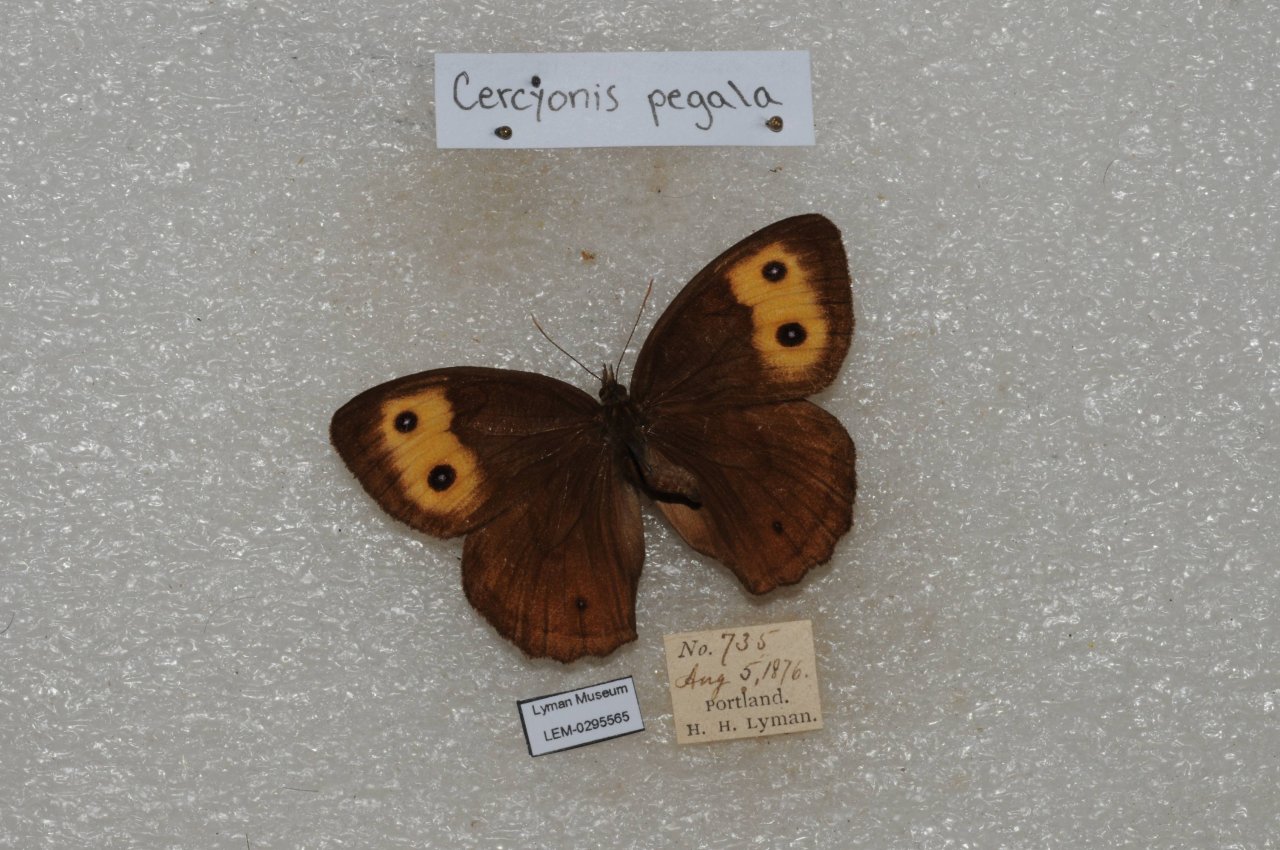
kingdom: Animalia
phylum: Arthropoda
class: Insecta
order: Lepidoptera
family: Nymphalidae
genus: Cercyonis
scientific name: Cercyonis pegala
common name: Common Wood-Nymph
